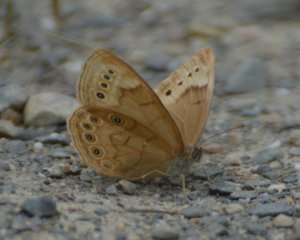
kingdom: Animalia
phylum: Arthropoda
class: Insecta
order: Lepidoptera
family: Nymphalidae
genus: Lethe
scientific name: Lethe eurydice
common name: Eyed Brown
